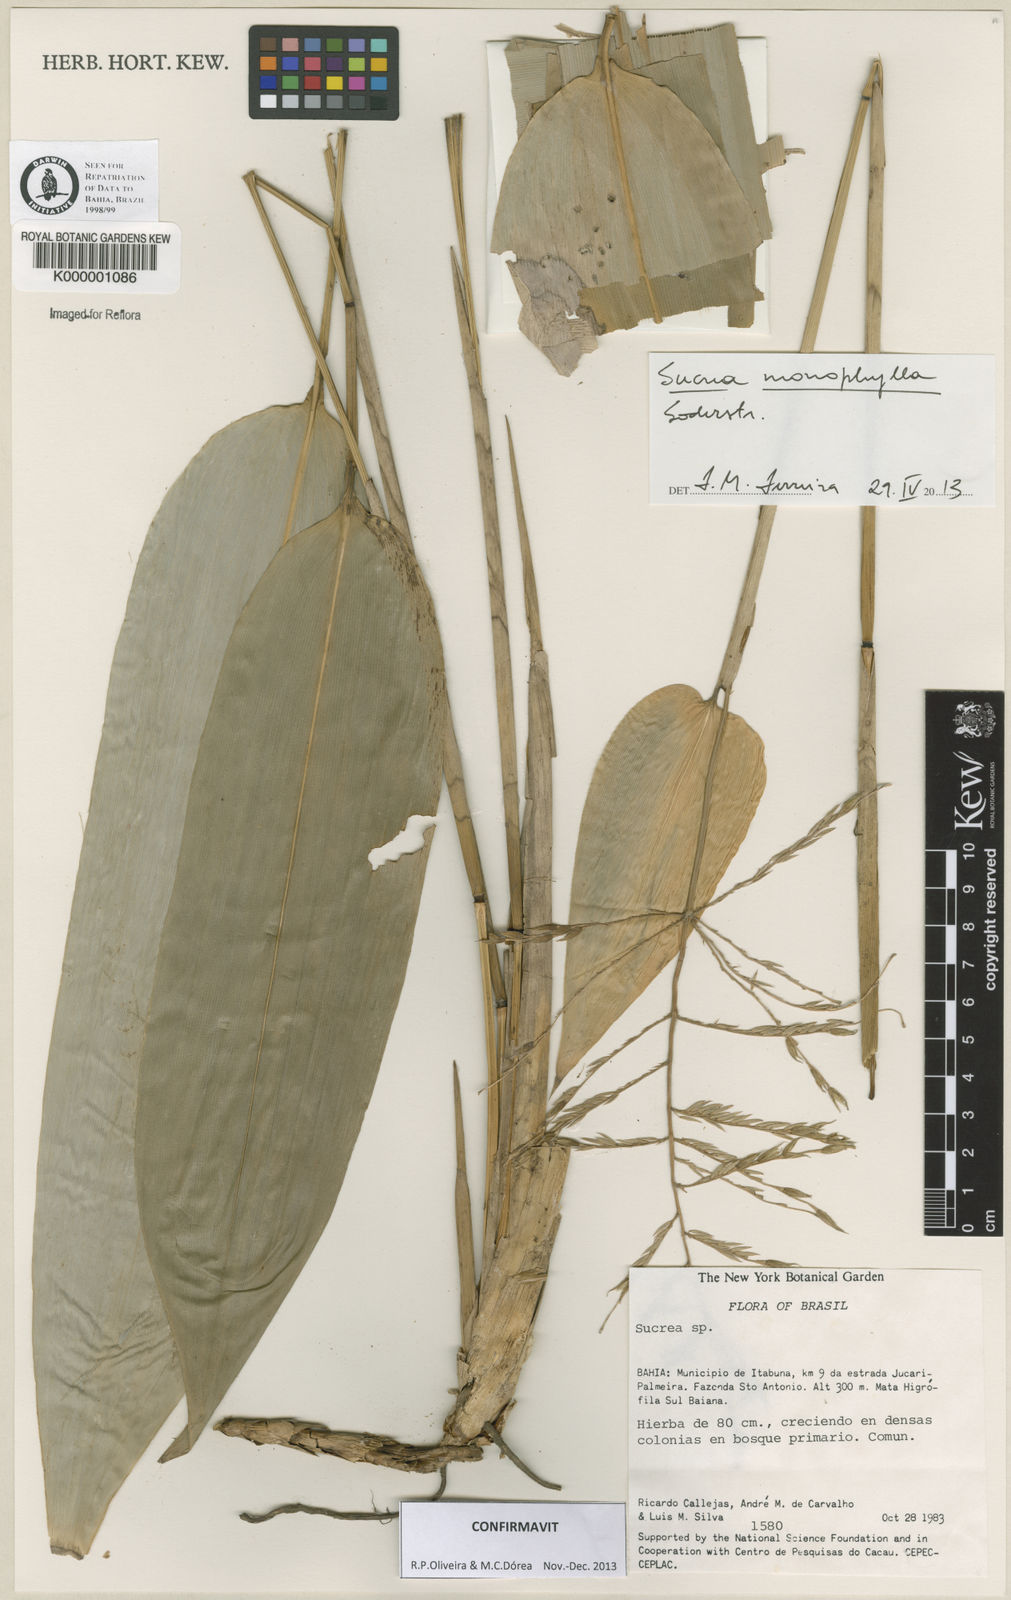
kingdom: Plantae
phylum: Tracheophyta
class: Liliopsida
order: Poales
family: Poaceae
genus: Raddia
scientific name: Raddia
